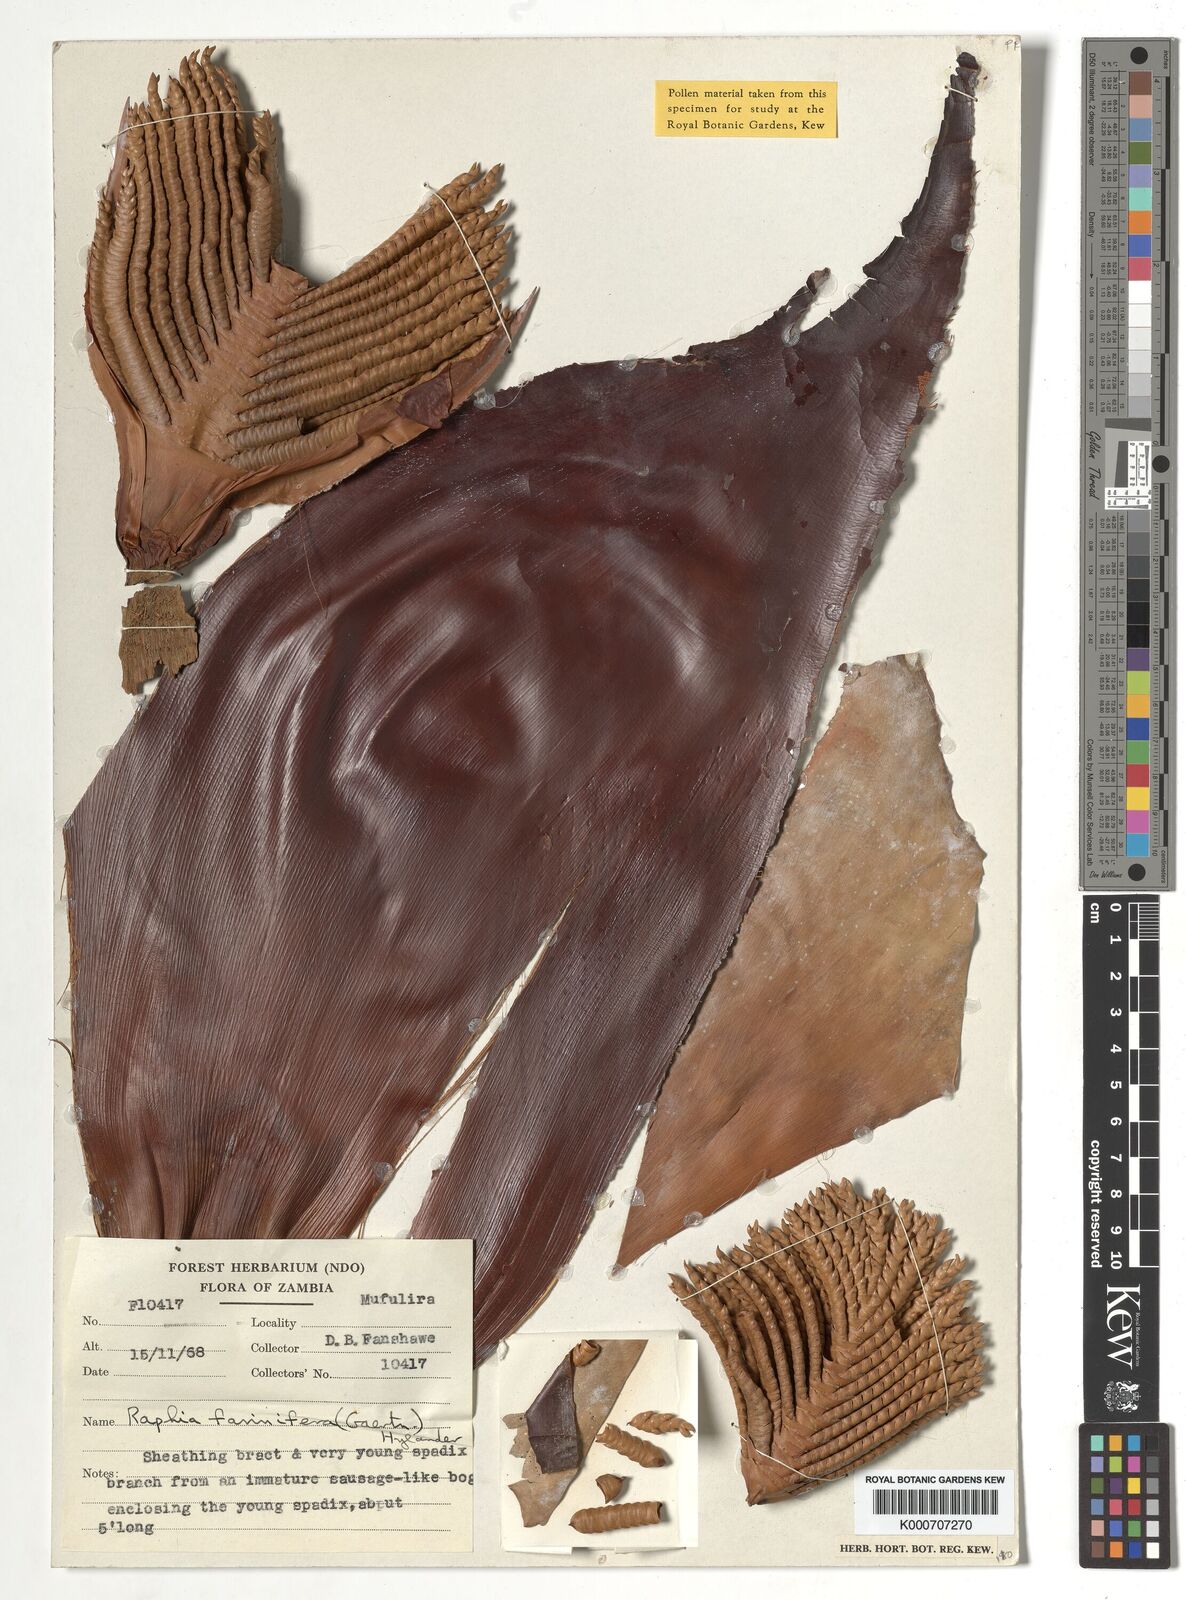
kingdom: Plantae
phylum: Tracheophyta
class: Liliopsida
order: Arecales
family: Arecaceae
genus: Raphia
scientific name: Raphia farinifera
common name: Raphia palm
